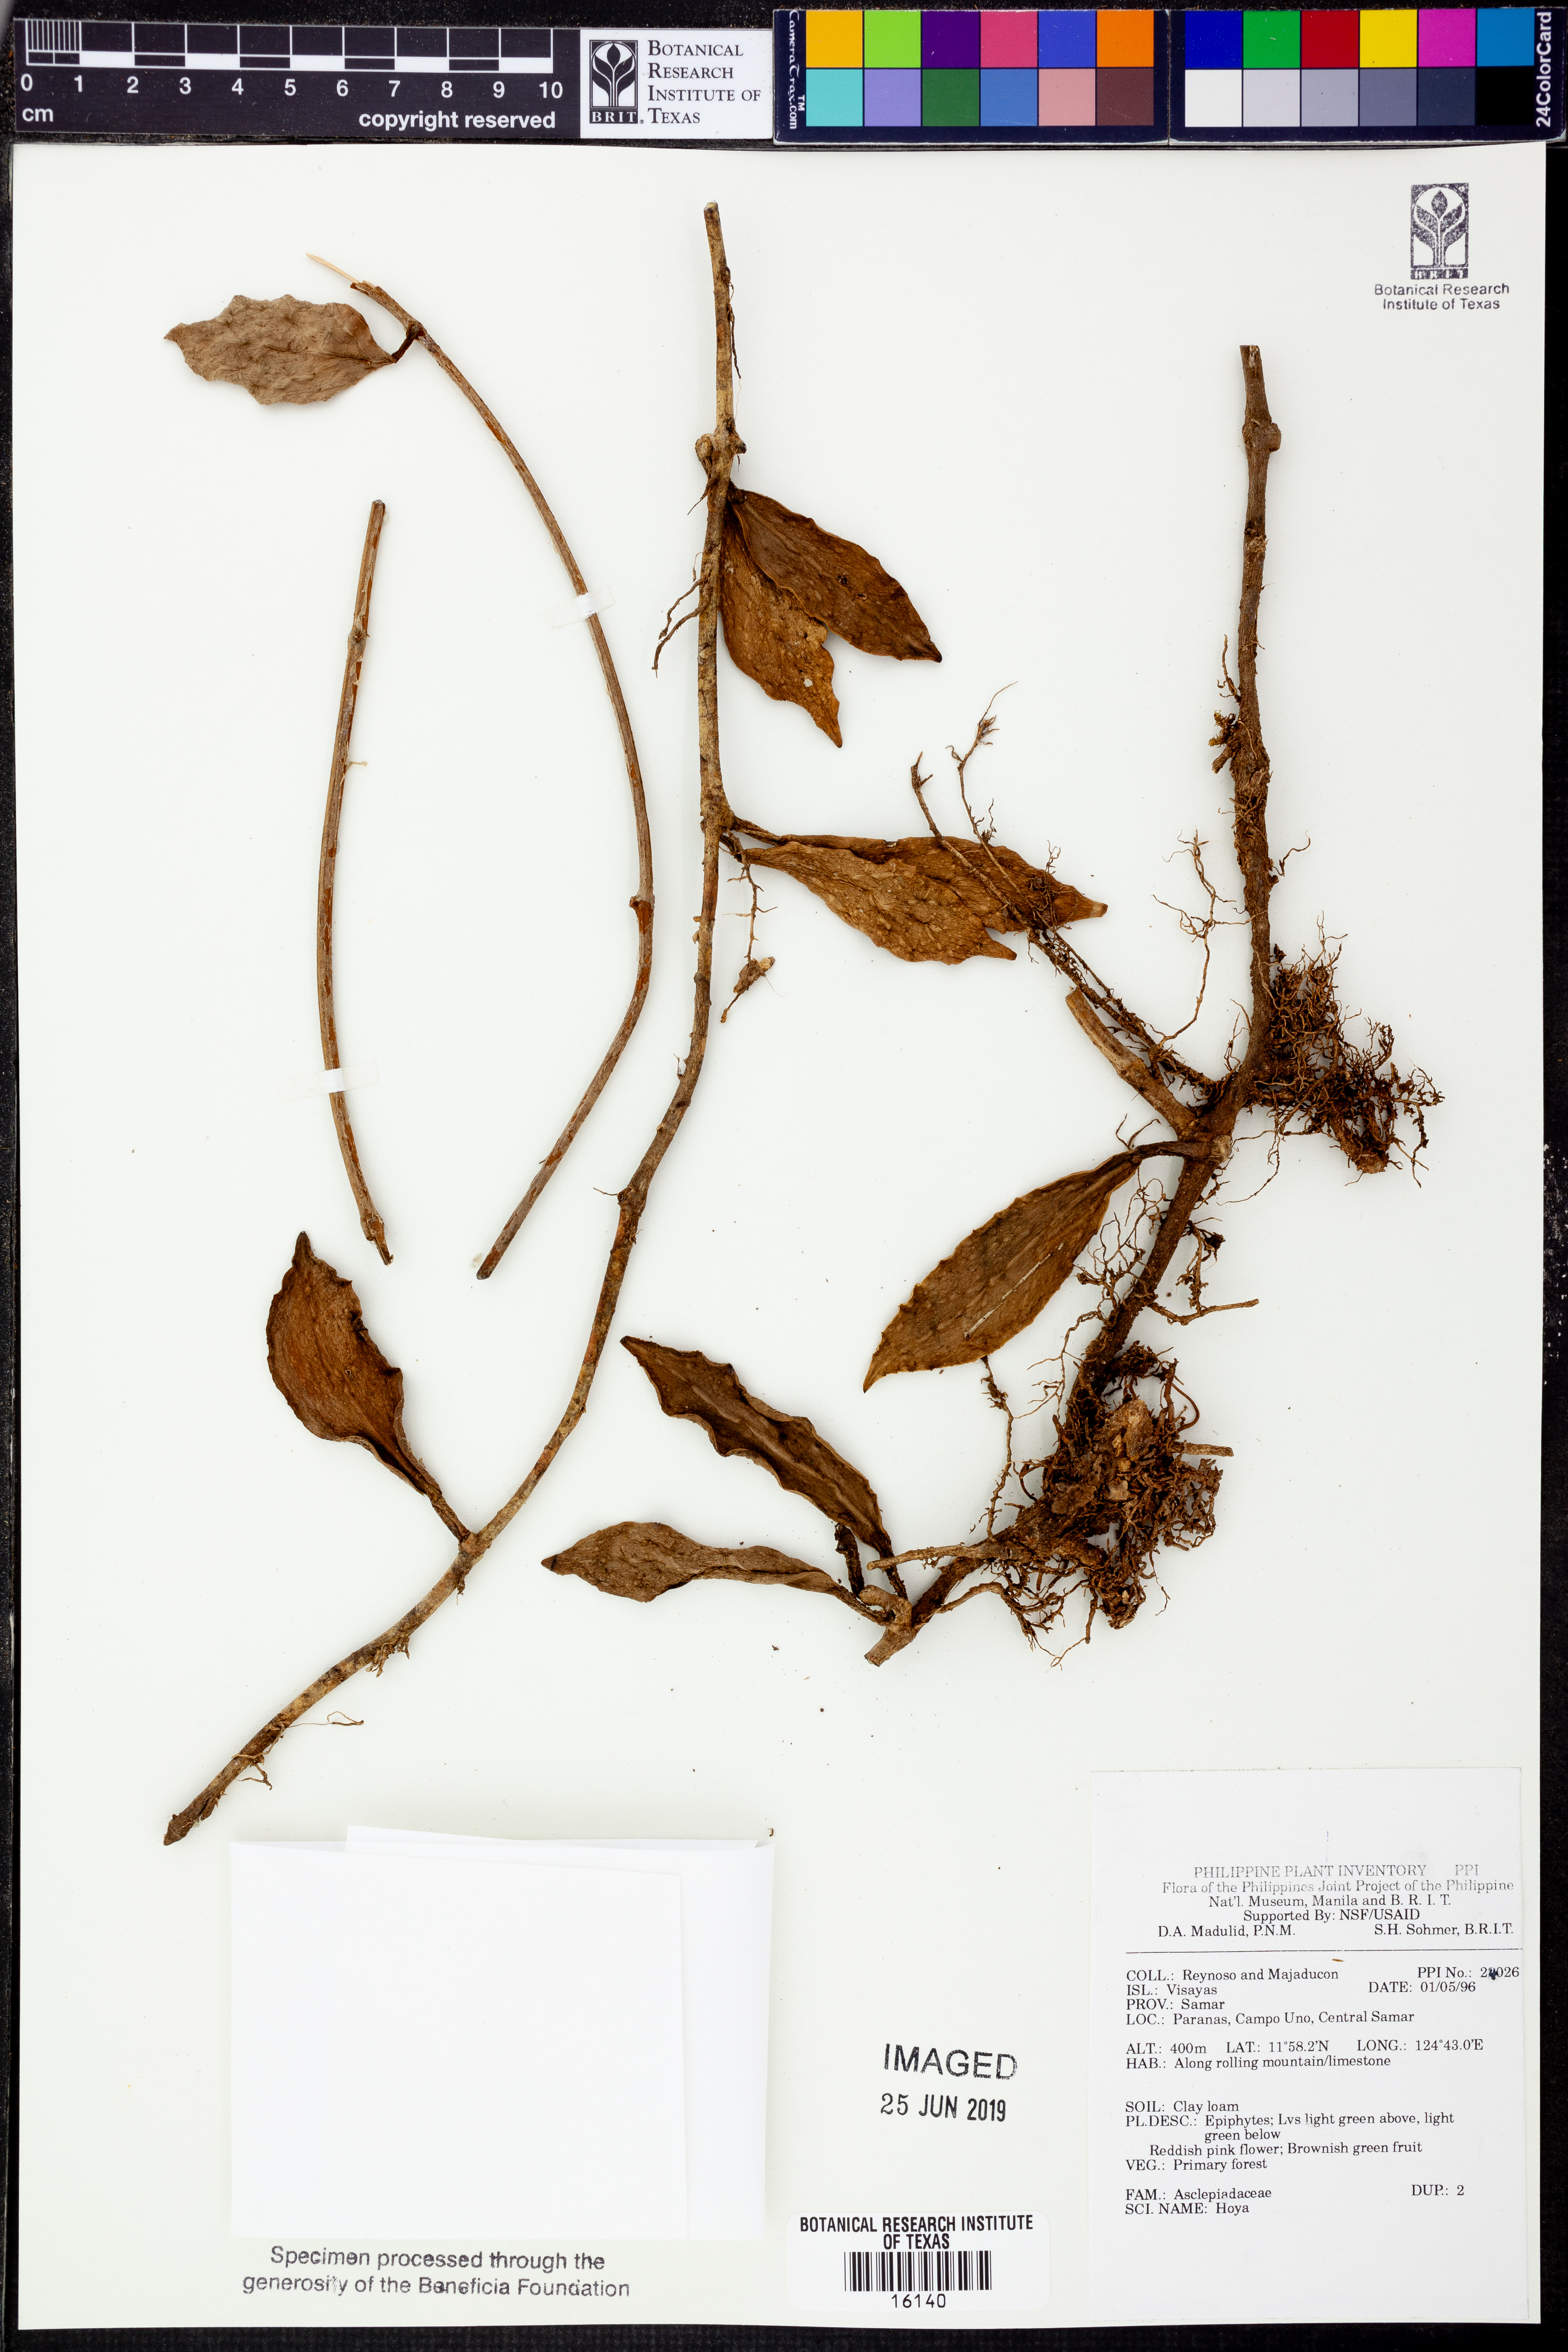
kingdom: Plantae
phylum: Tracheophyta
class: Magnoliopsida
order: Gentianales
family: Apocynaceae
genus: Hoya
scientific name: Hoya
